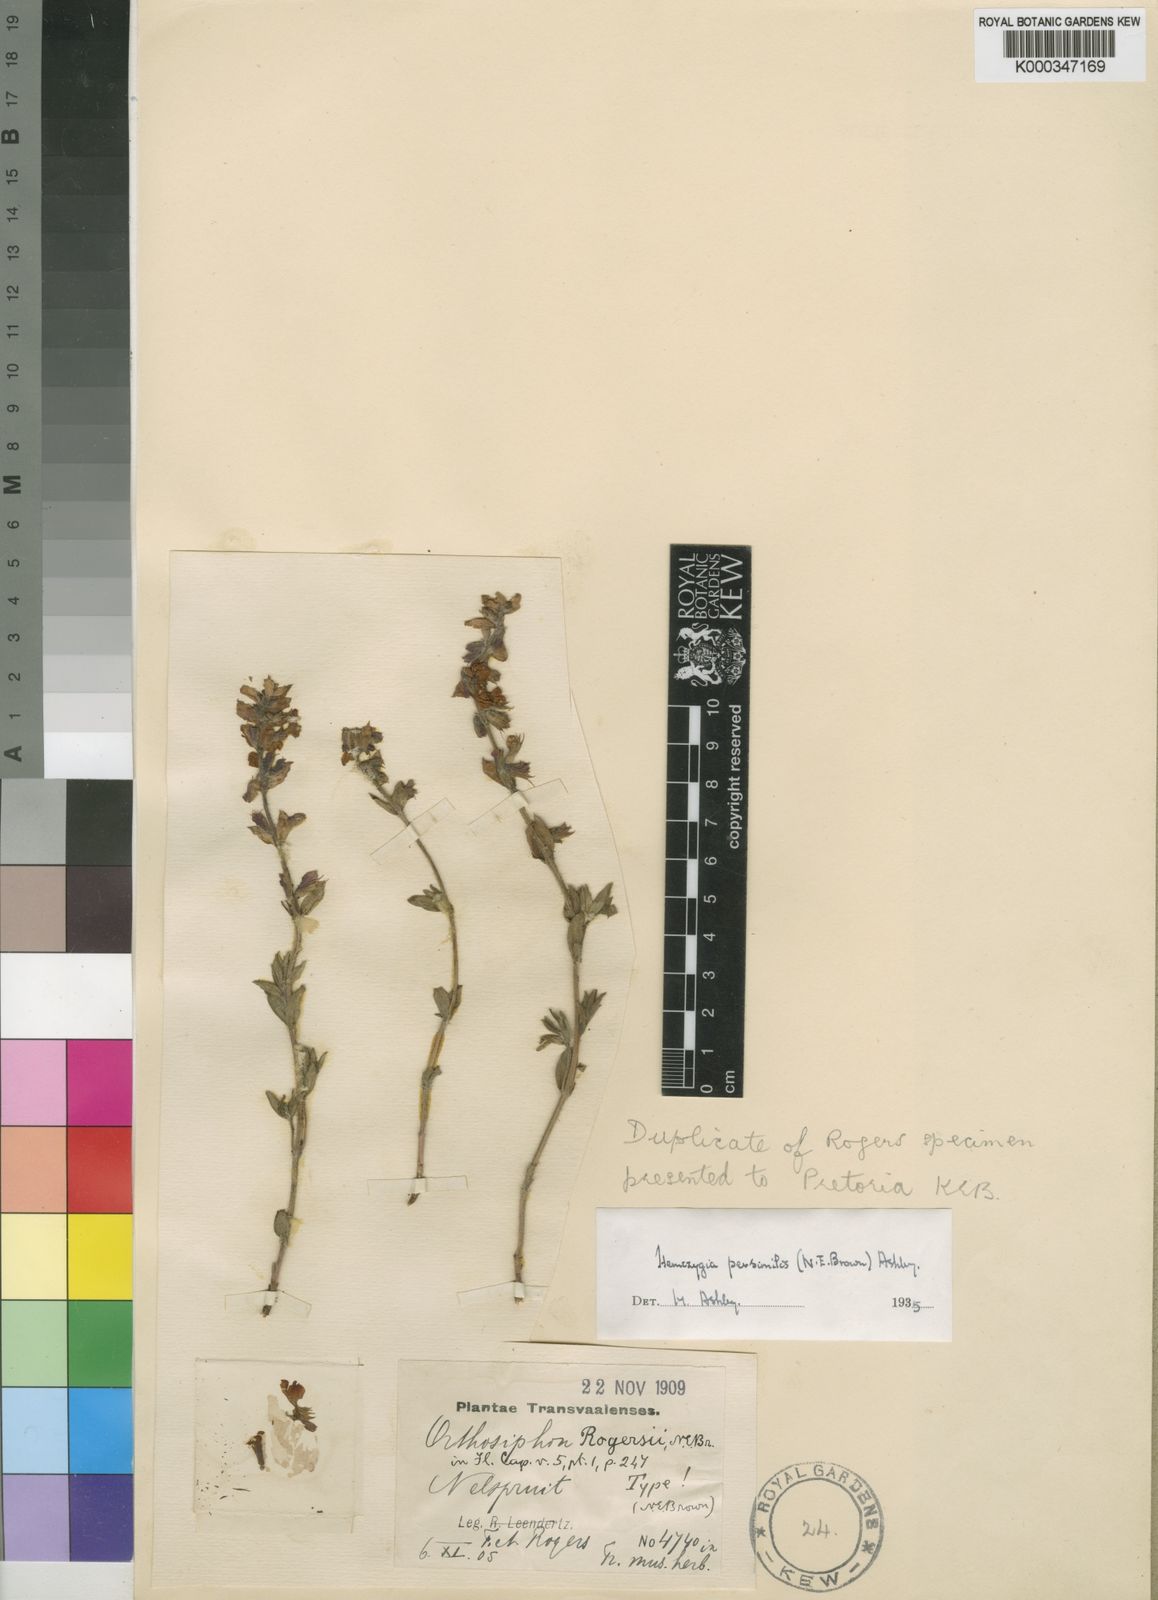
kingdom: Plantae
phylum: Tracheophyta
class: Magnoliopsida
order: Lamiales
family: Lamiaceae
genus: Syncolostemon
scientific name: Syncolostemon persimilis
